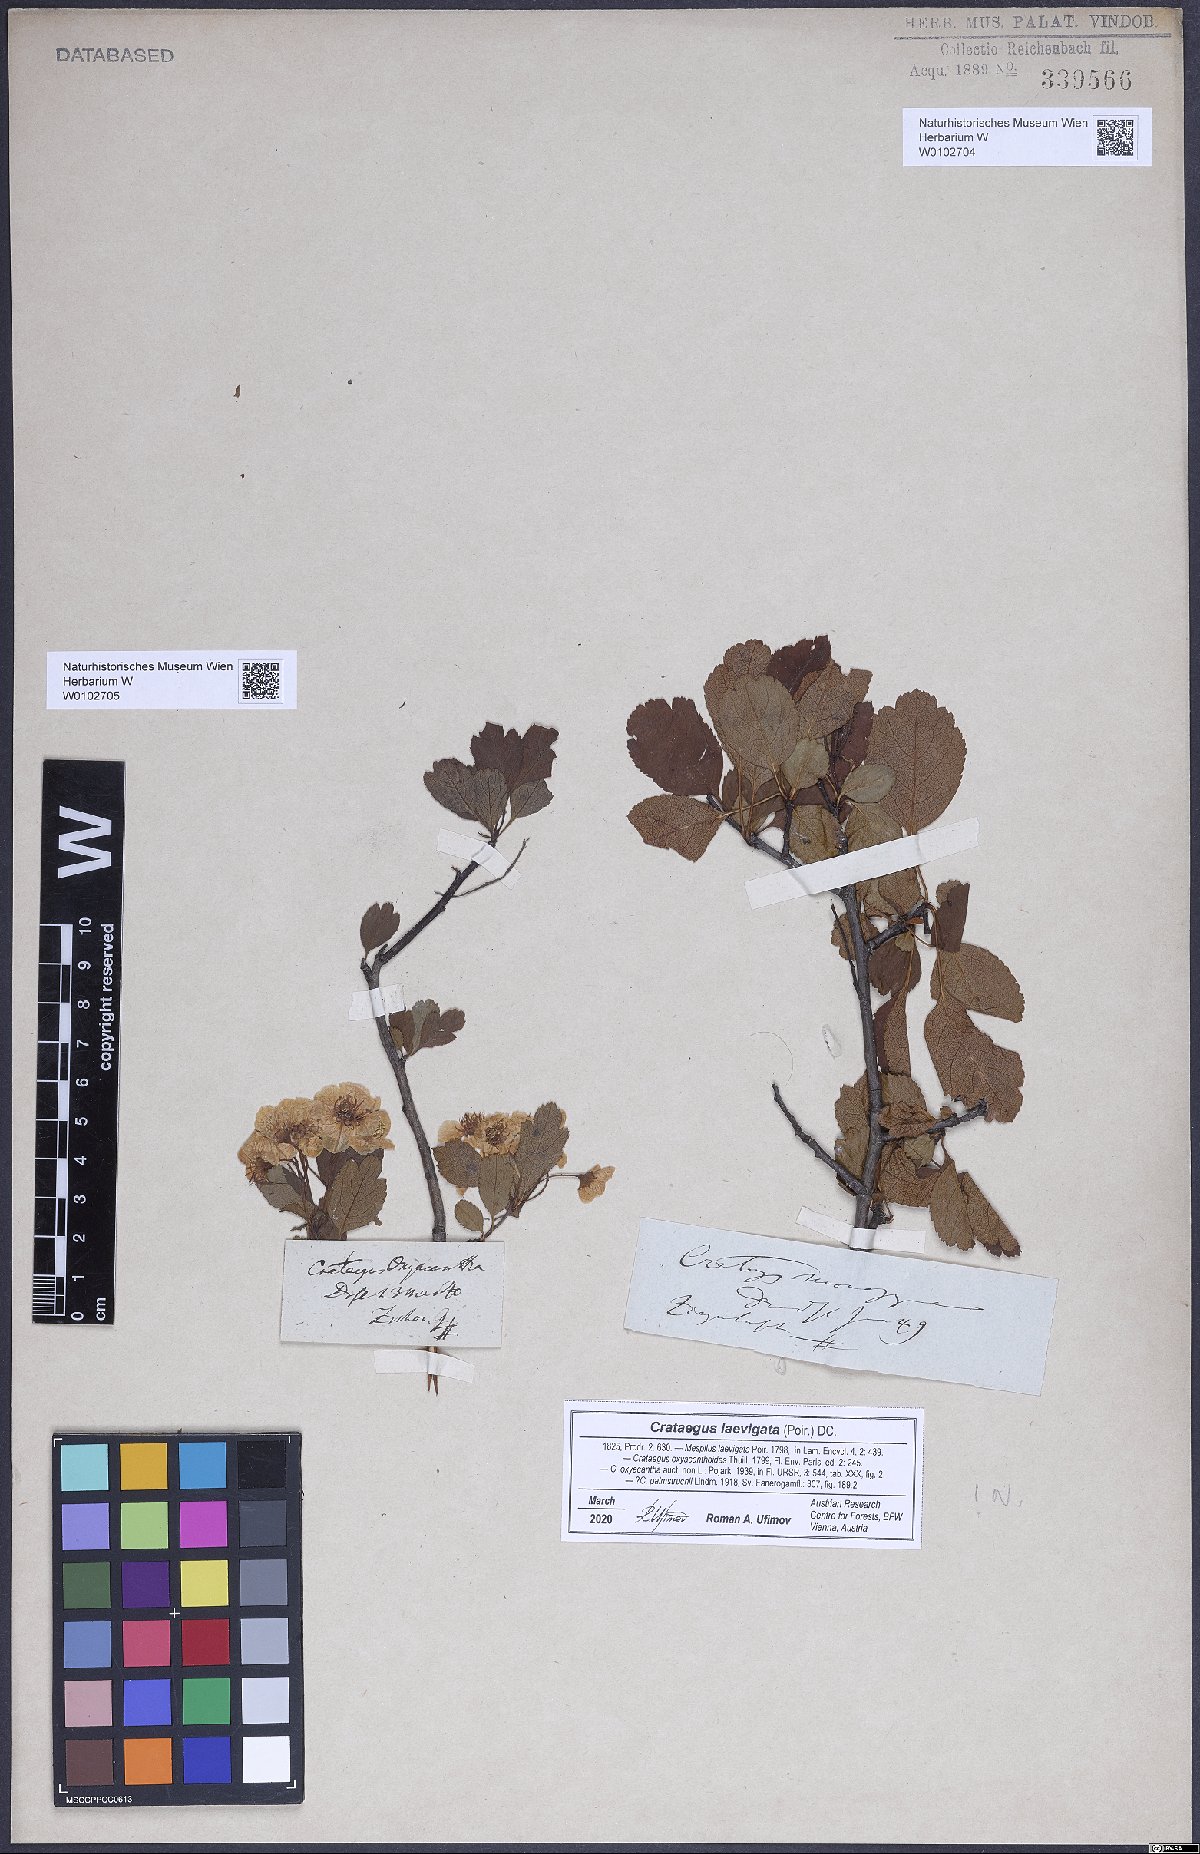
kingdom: Plantae
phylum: Tracheophyta
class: Magnoliopsida
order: Rosales
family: Rosaceae
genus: Crataegus
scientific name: Crataegus laevigata
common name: Midland hawthorn
